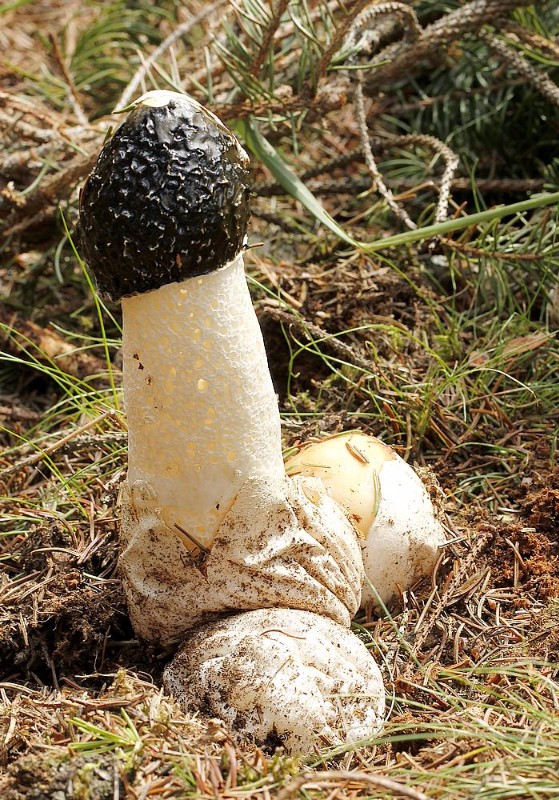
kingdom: Fungi
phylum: Basidiomycota
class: Agaricomycetes
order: Phallales
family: Phallaceae
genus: Phallus
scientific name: Phallus impudicus
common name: almindelig stinksvamp
